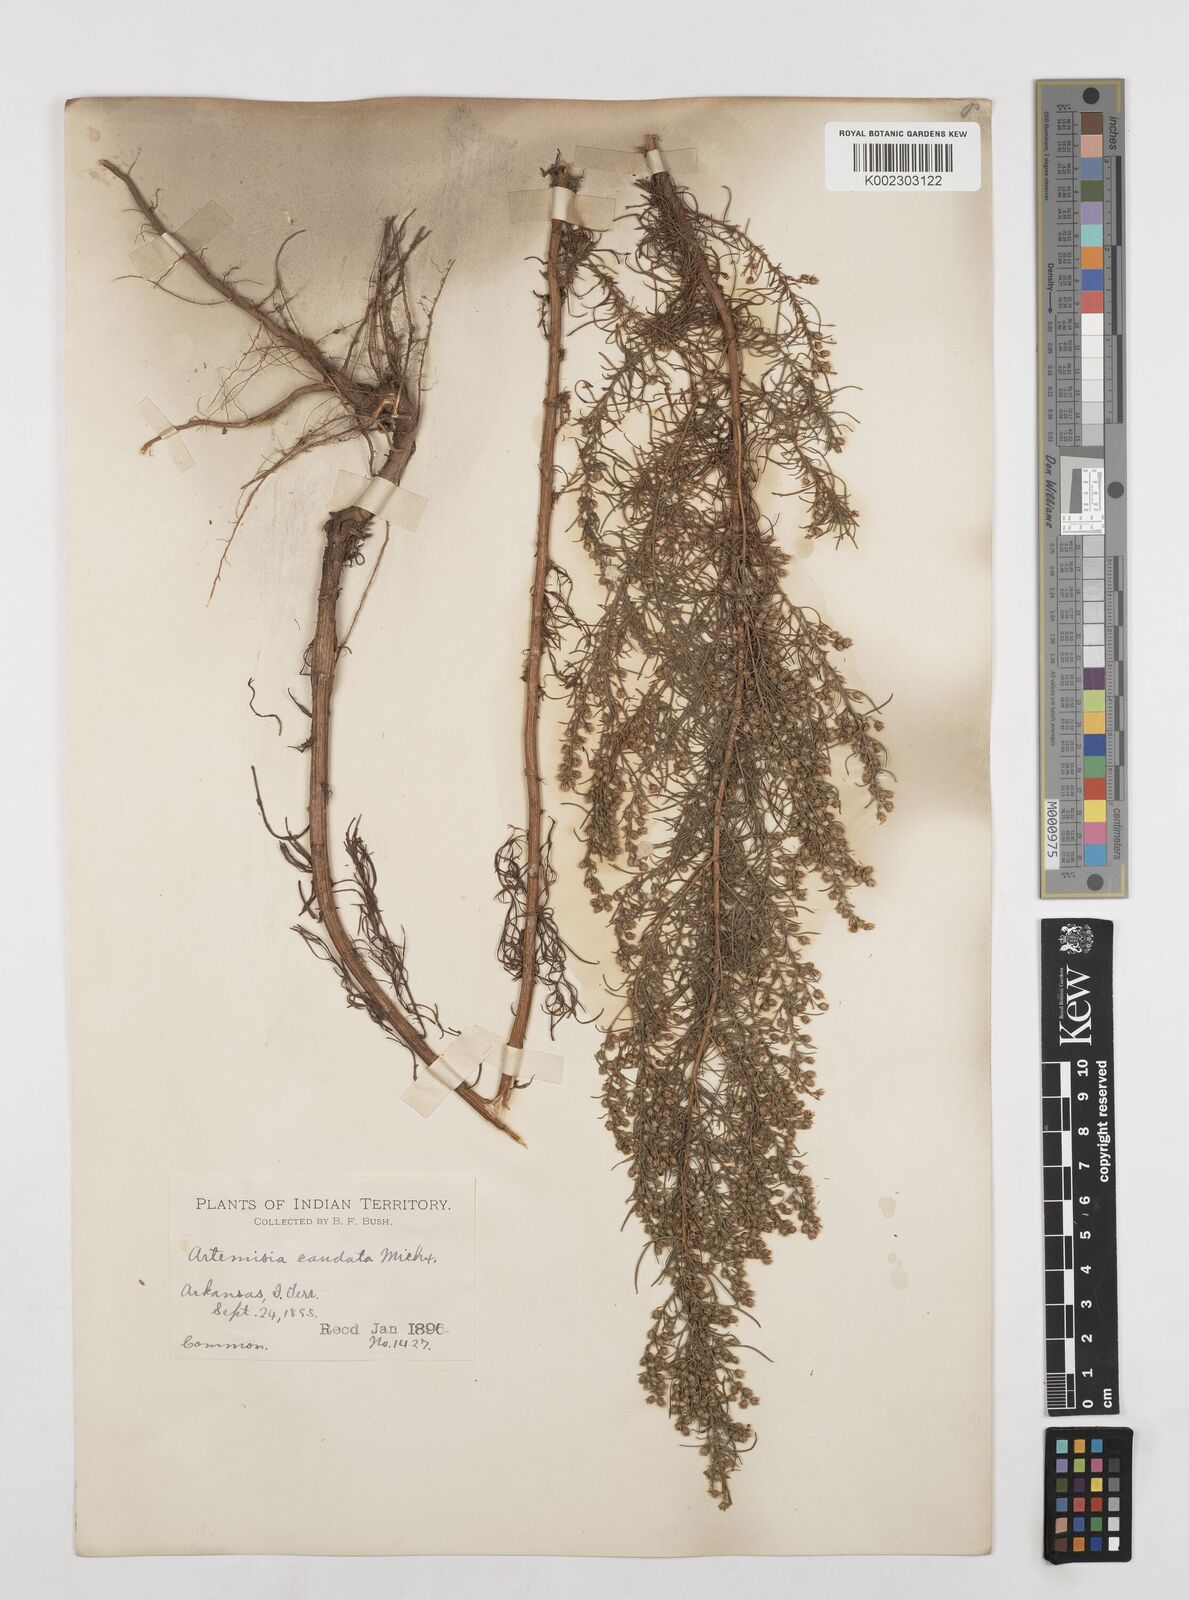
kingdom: Plantae
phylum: Tracheophyta
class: Magnoliopsida
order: Asterales
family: Asteraceae
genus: Artemisia
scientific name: Artemisia campestris
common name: Field wormwood
